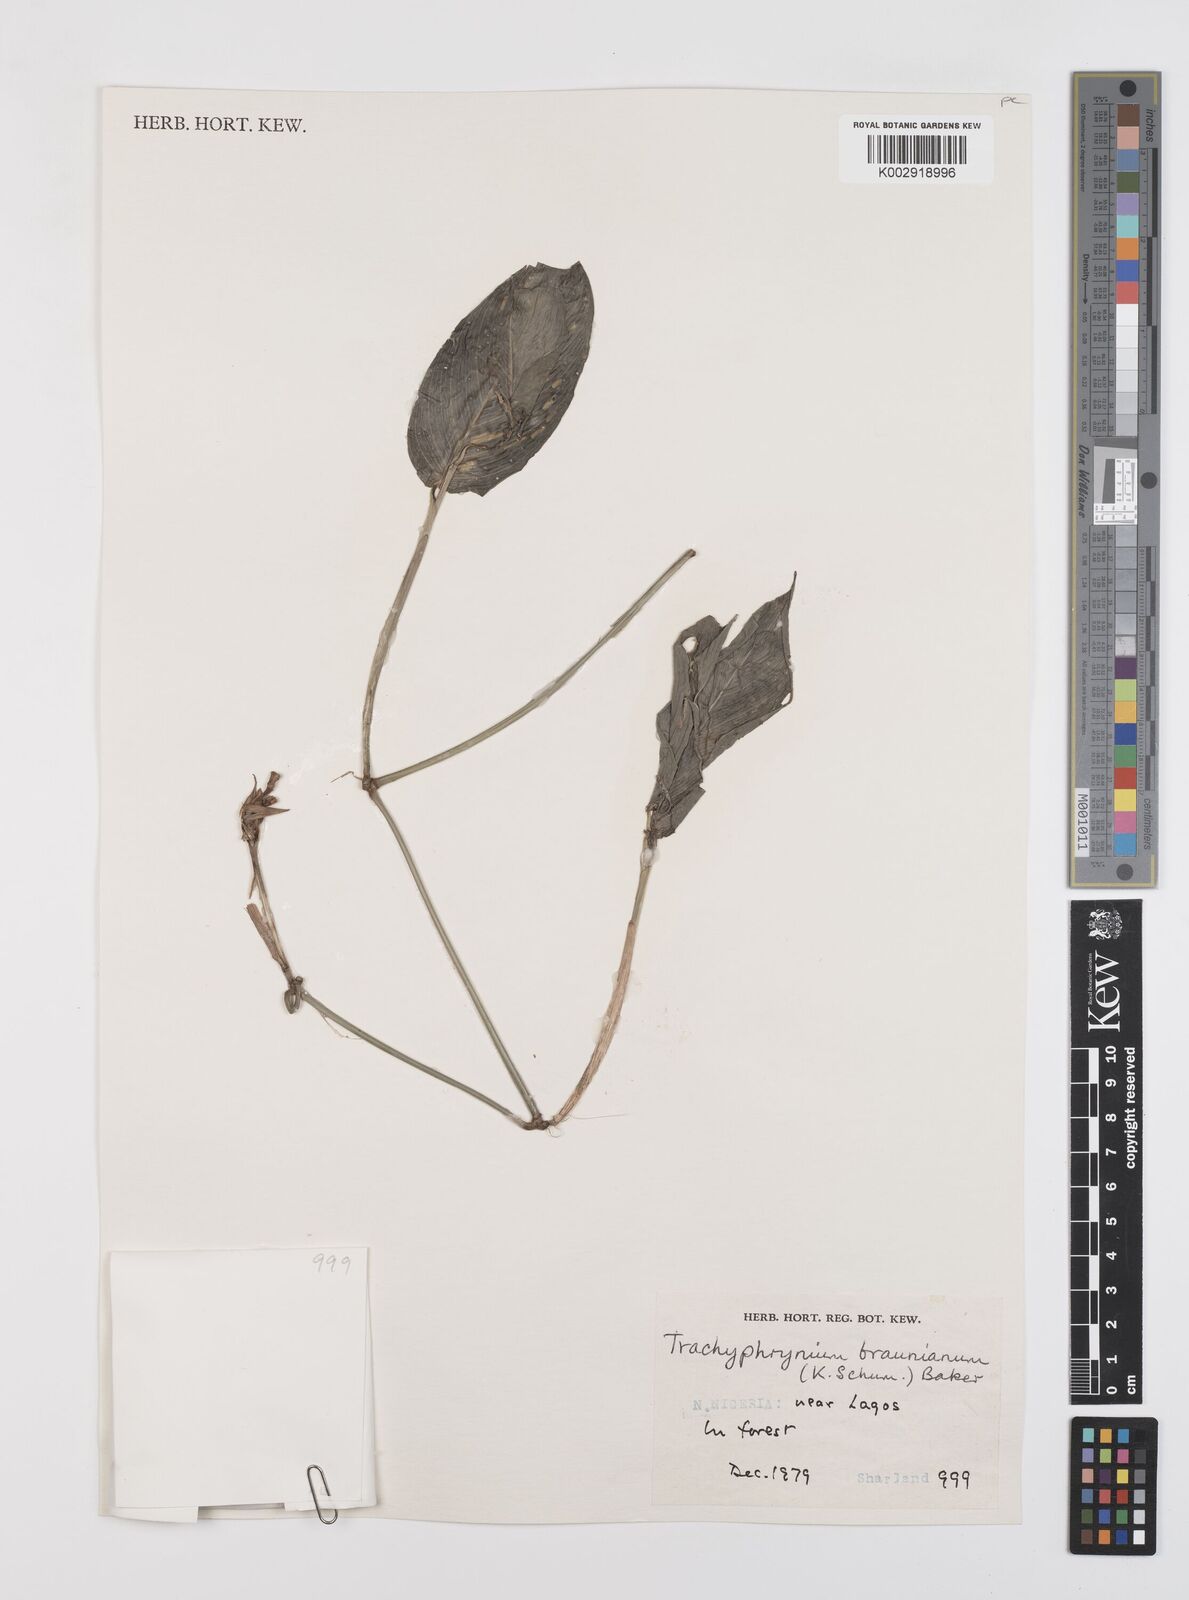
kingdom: Plantae
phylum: Tracheophyta
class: Liliopsida
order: Zingiberales
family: Marantaceae
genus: Trachyphrynium
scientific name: Trachyphrynium braunianum
